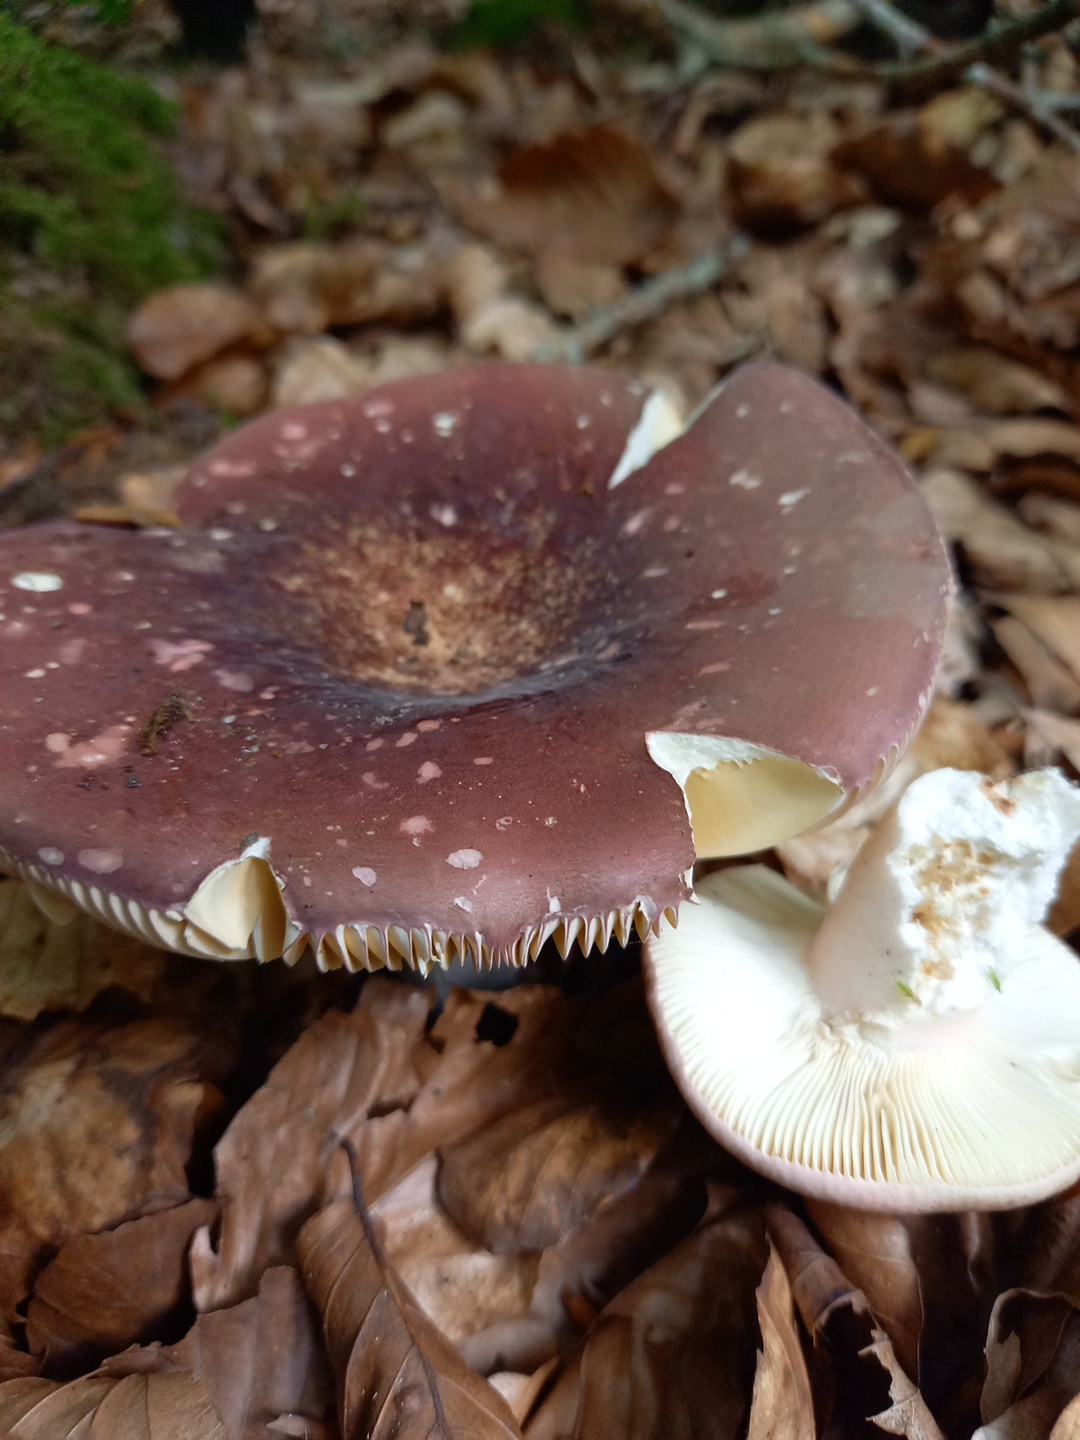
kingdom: Fungi
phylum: Basidiomycota
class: Agaricomycetes
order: Russulales
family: Russulaceae
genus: Russula
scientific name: Russula olivacea
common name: stor skørhat
